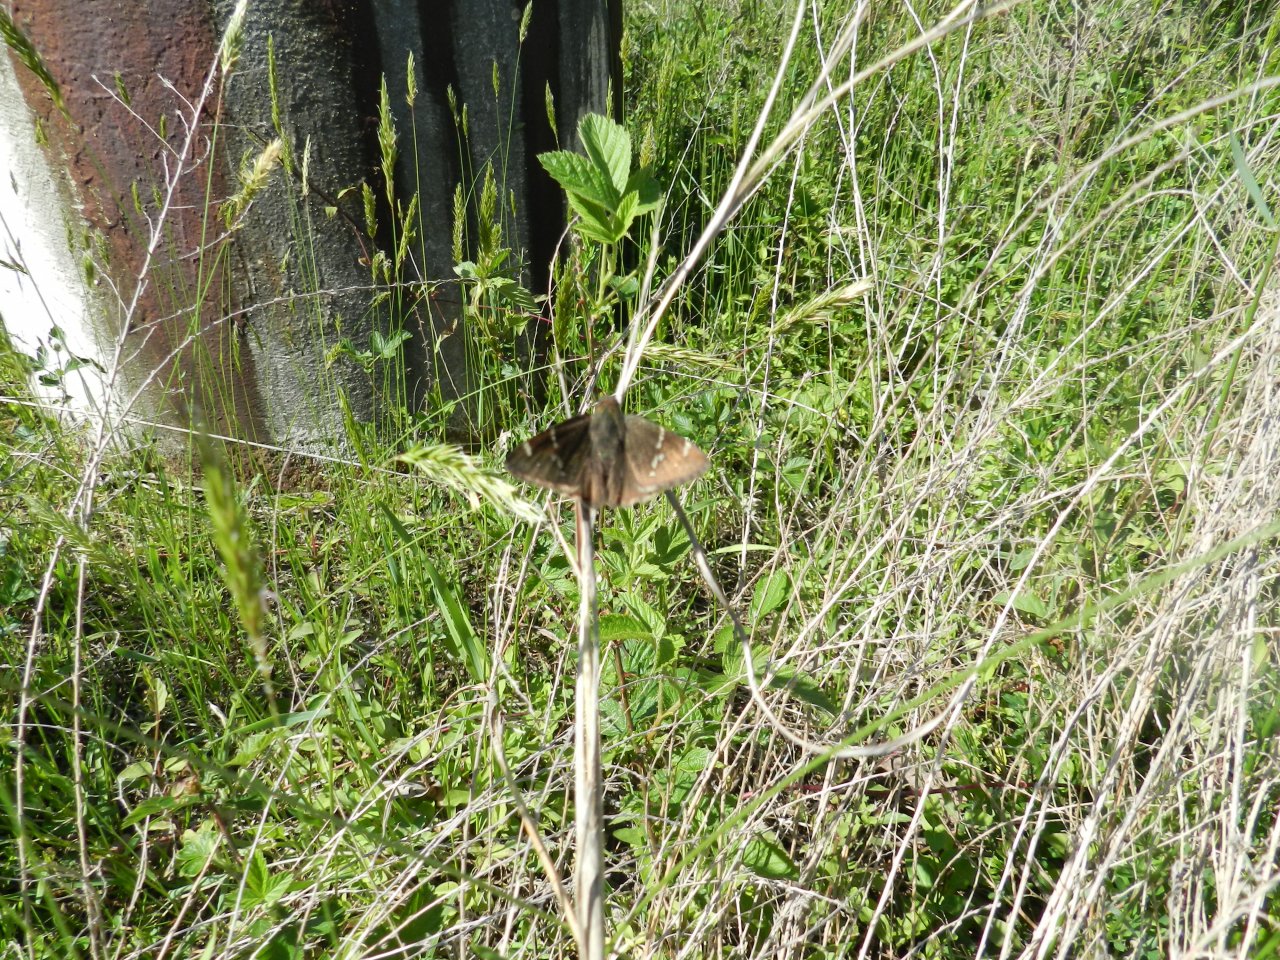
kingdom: Animalia
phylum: Arthropoda
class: Insecta
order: Lepidoptera
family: Hesperiidae
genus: Autochton
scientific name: Autochton
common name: Southern Cloudywing
